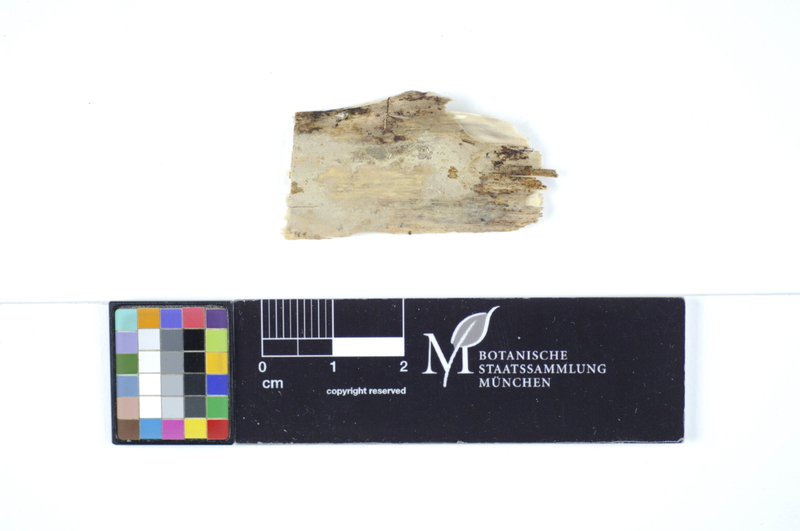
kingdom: Fungi
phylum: Basidiomycota
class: Agaricomycetes
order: Polyporales
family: Hyphodermataceae
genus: Hyphoderma
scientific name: Hyphoderma medioburiense
